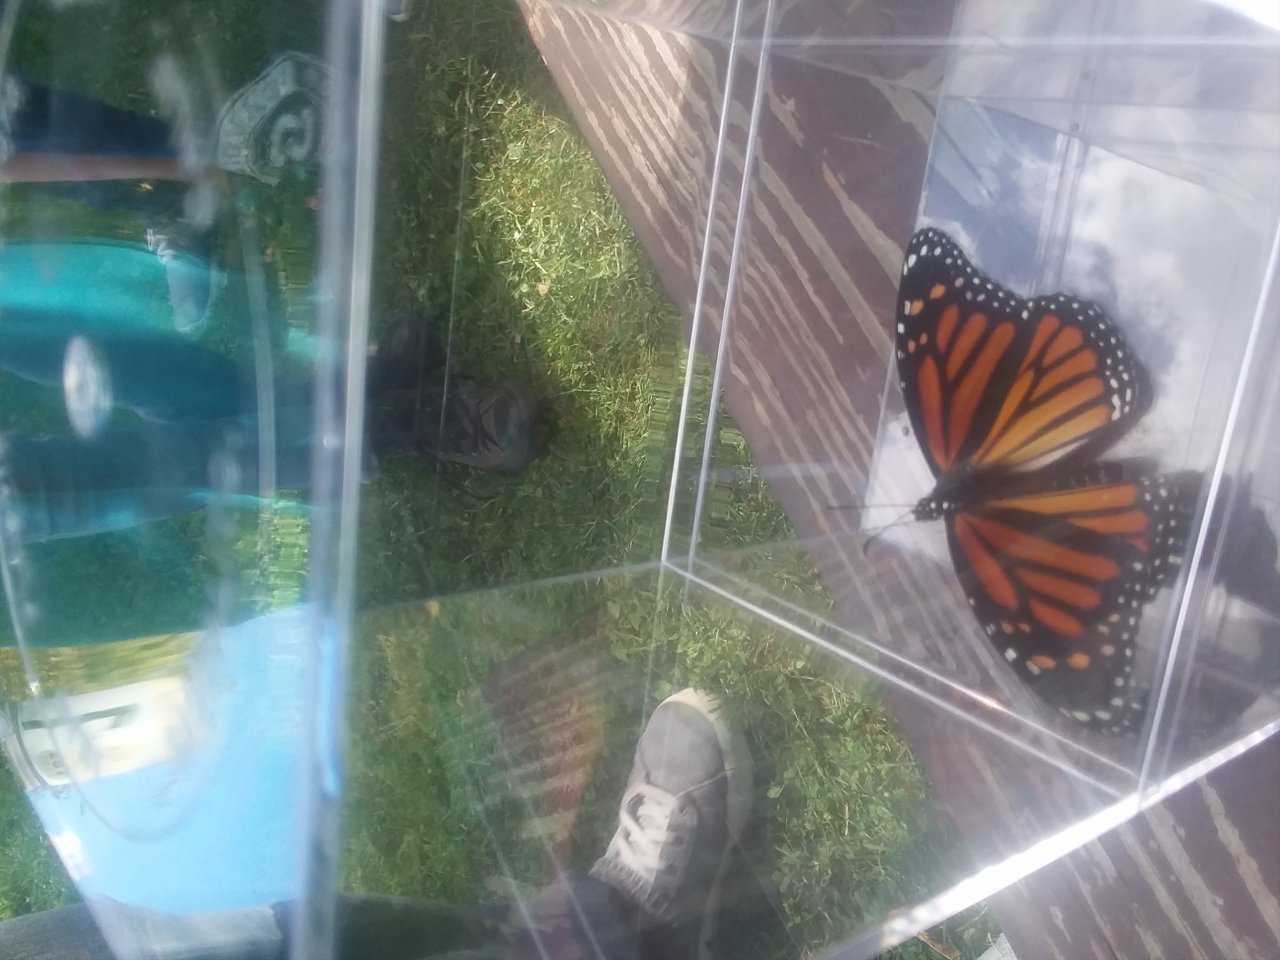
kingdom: Animalia
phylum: Arthropoda
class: Insecta
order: Lepidoptera
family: Nymphalidae
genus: Danaus
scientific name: Danaus plexippus
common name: Monarch
